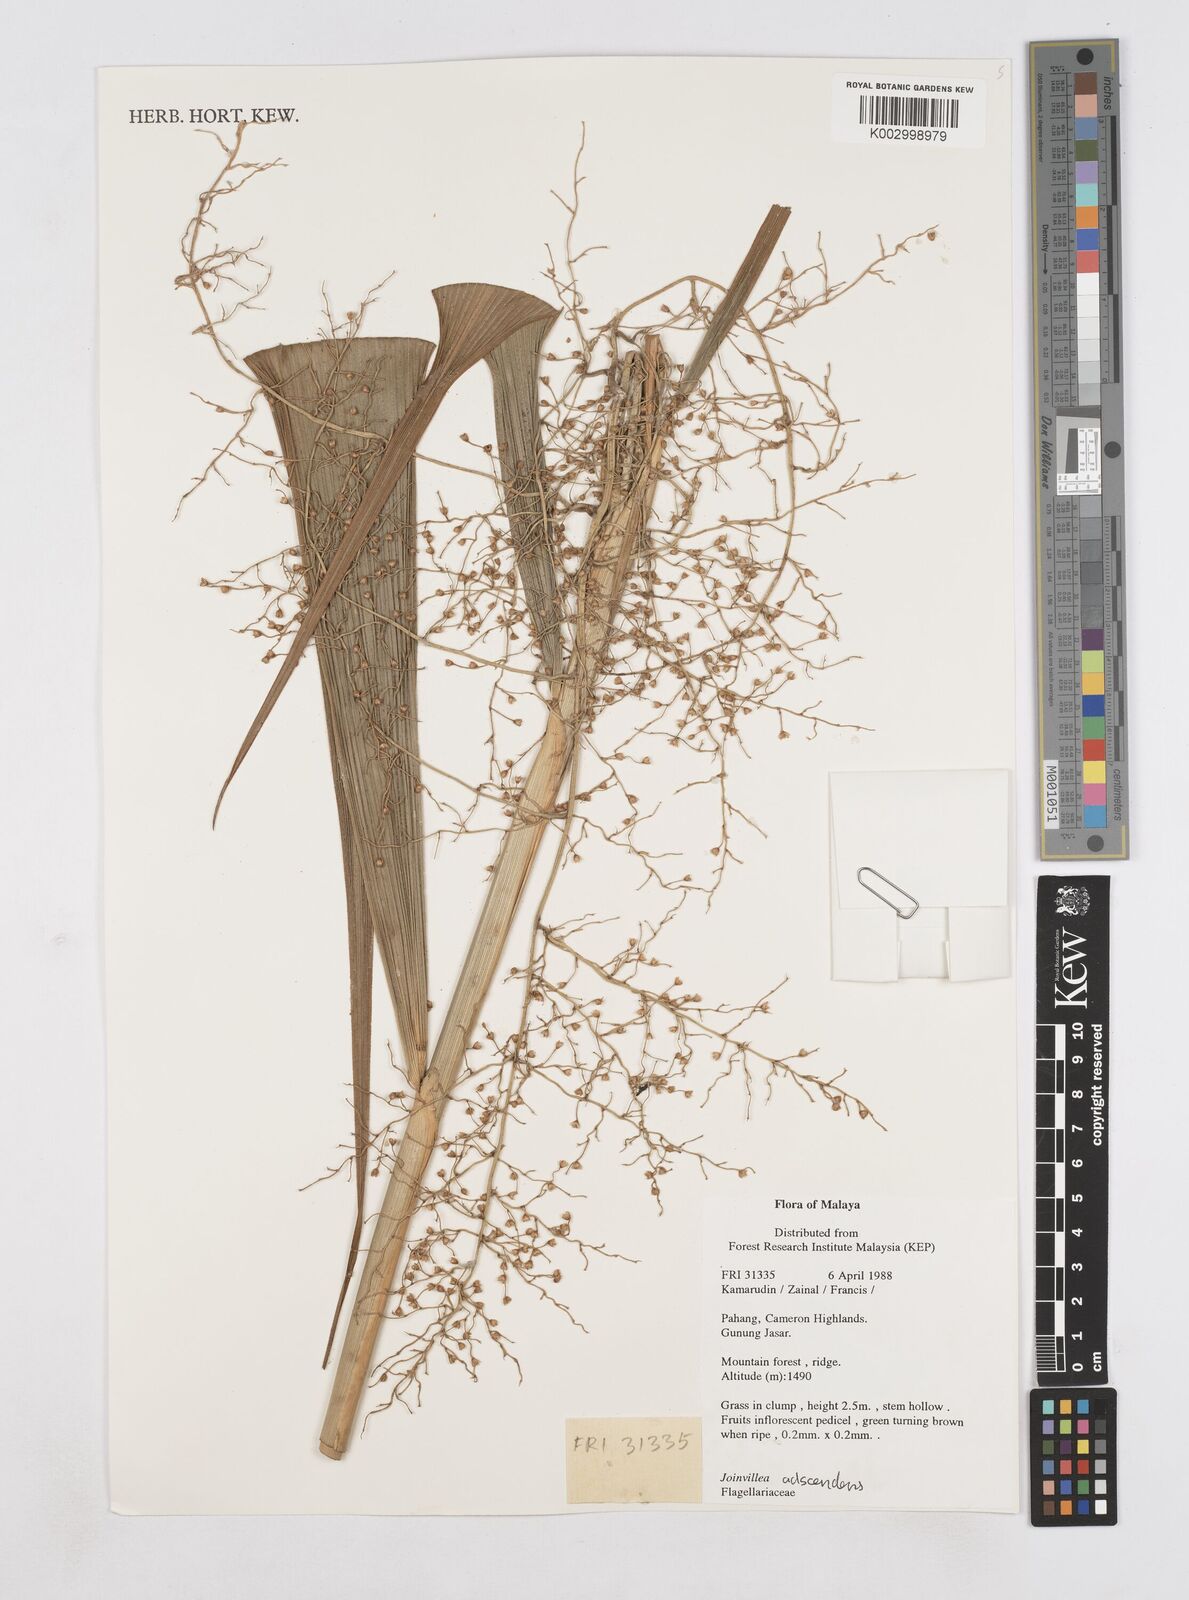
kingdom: Plantae
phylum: Tracheophyta
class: Liliopsida
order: Poales
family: Joinvilleaceae
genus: Joinvillea
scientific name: Joinvillea borneensis
